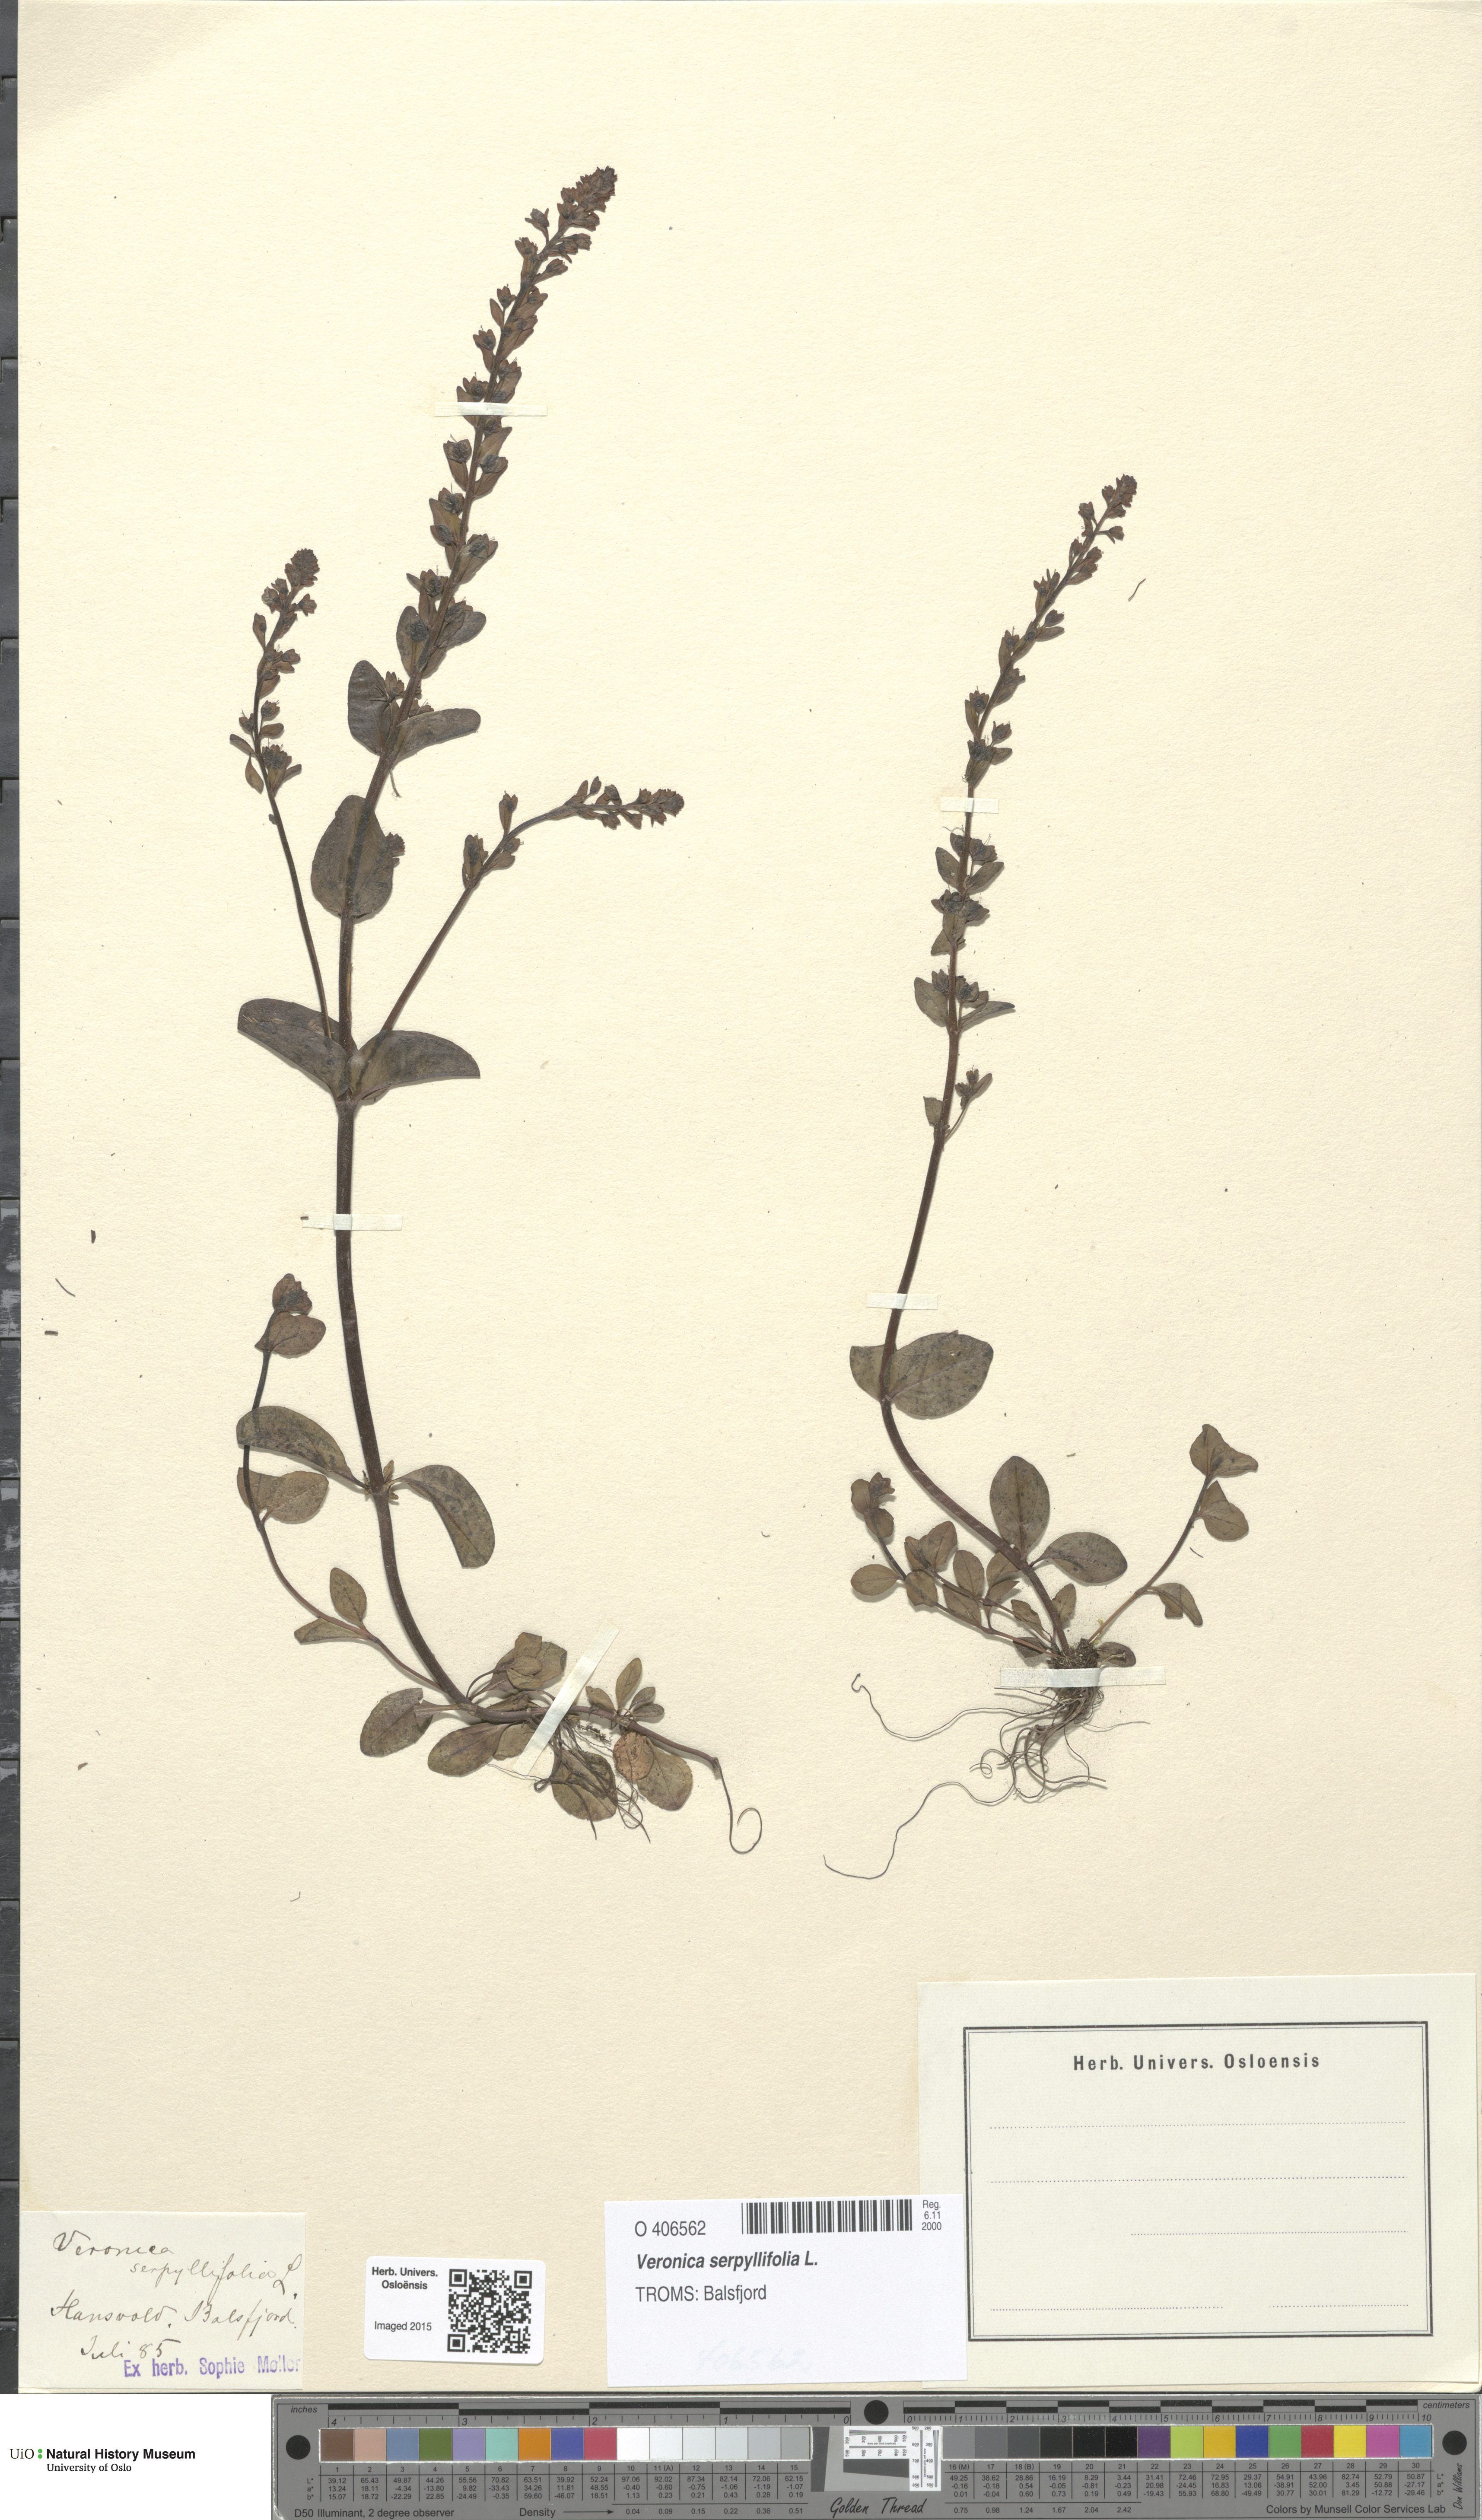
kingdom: Plantae
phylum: Tracheophyta
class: Magnoliopsida
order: Lamiales
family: Plantaginaceae
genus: Veronica
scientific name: Veronica serpyllifolia
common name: Thyme-leaved speedwell
